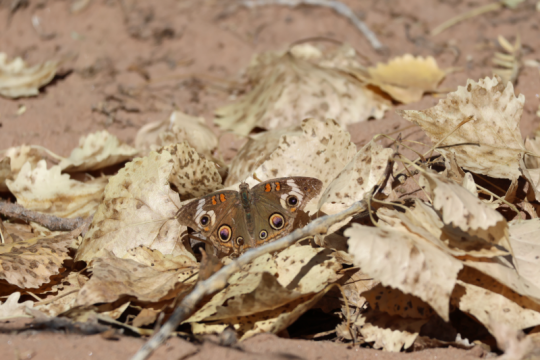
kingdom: Animalia
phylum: Arthropoda
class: Insecta
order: Lepidoptera
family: Nymphalidae
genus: Junonia
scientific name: Junonia coenia
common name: Common Buckeye
